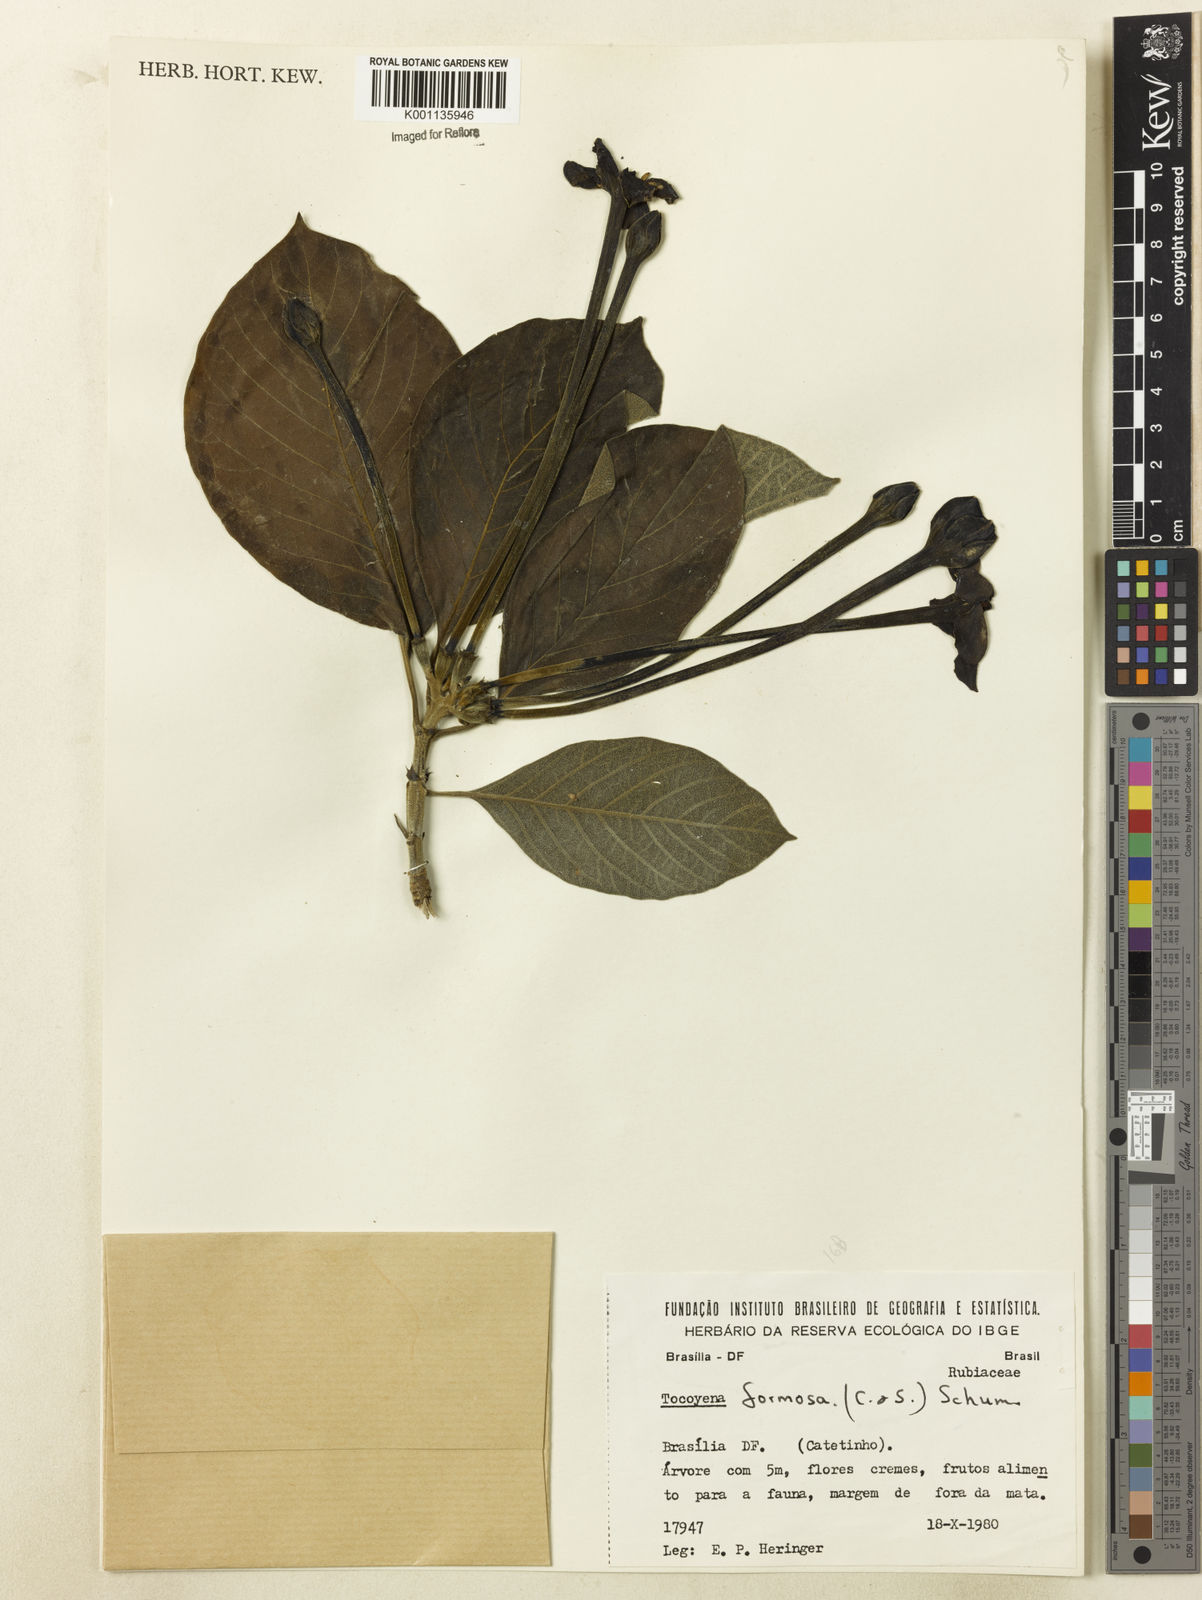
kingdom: Plantae
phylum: Tracheophyta
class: Magnoliopsida
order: Gentianales
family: Rubiaceae
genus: Tocoyena
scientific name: Tocoyena formosa
